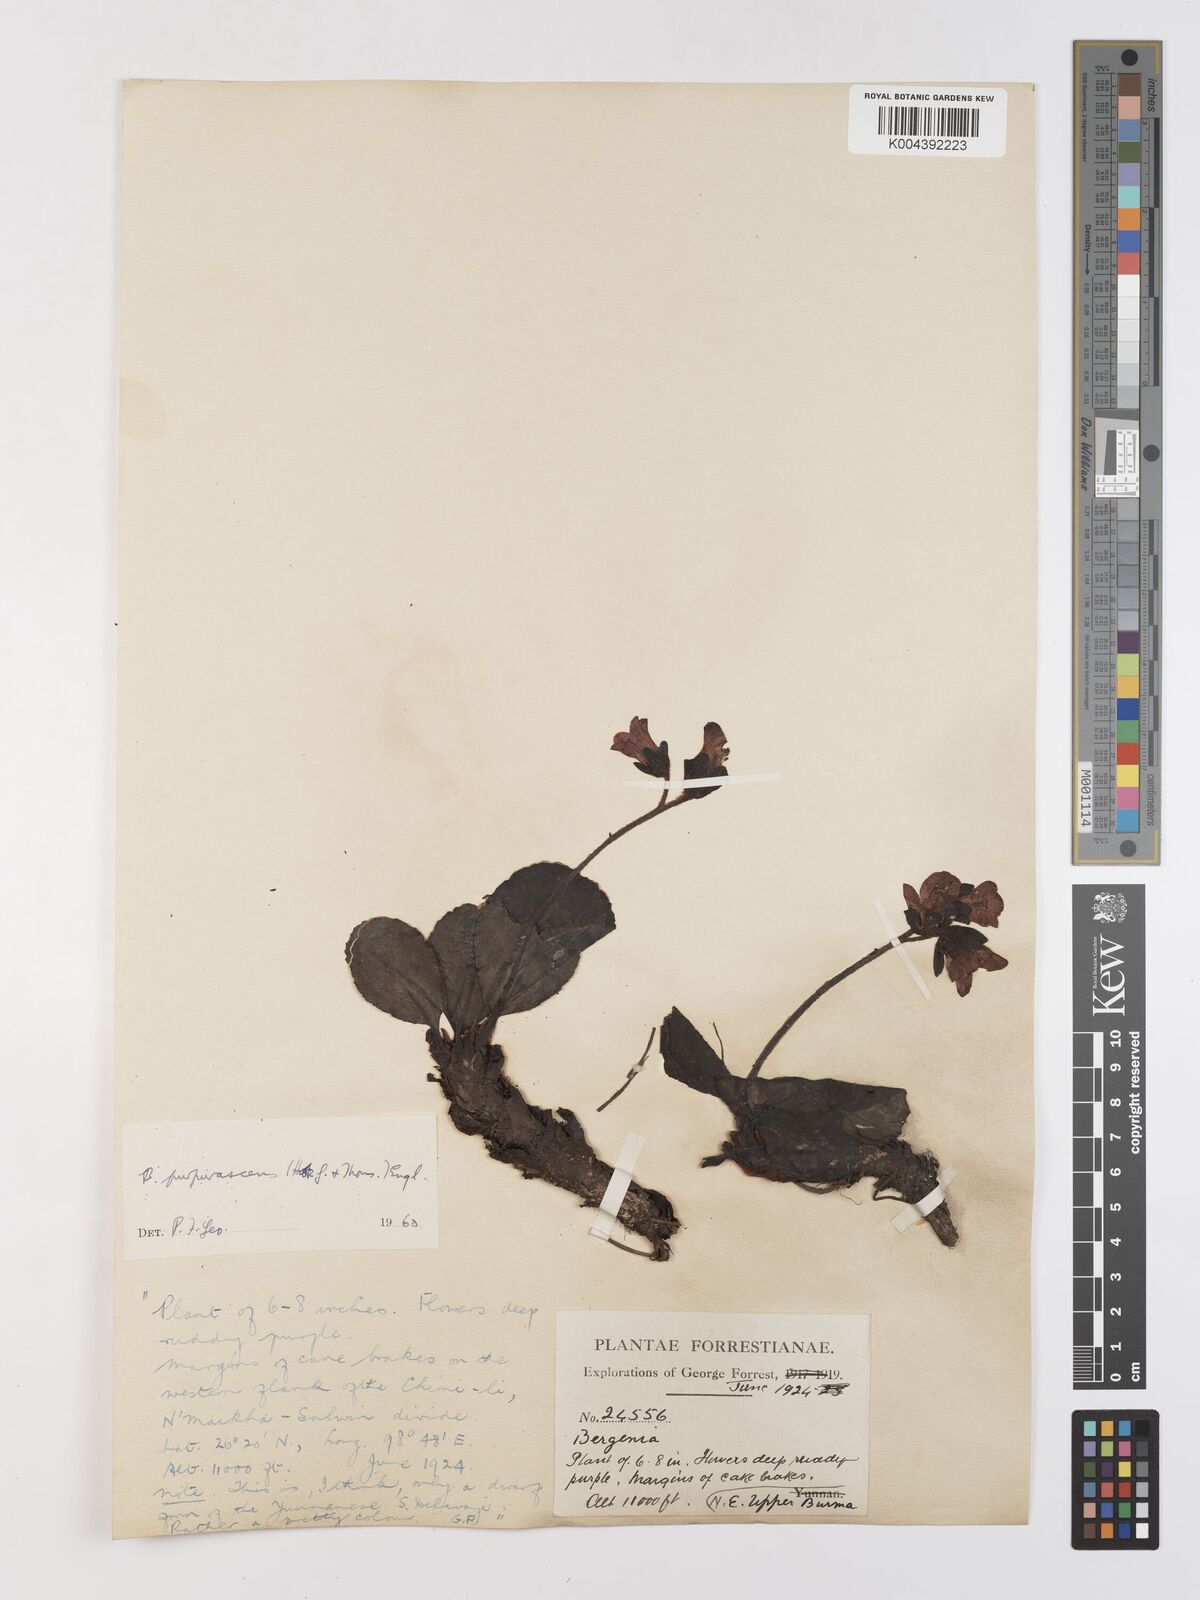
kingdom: Plantae
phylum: Tracheophyta
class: Magnoliopsida
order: Saxifragales
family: Saxifragaceae
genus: Bergenia
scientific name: Bergenia purpurascens
